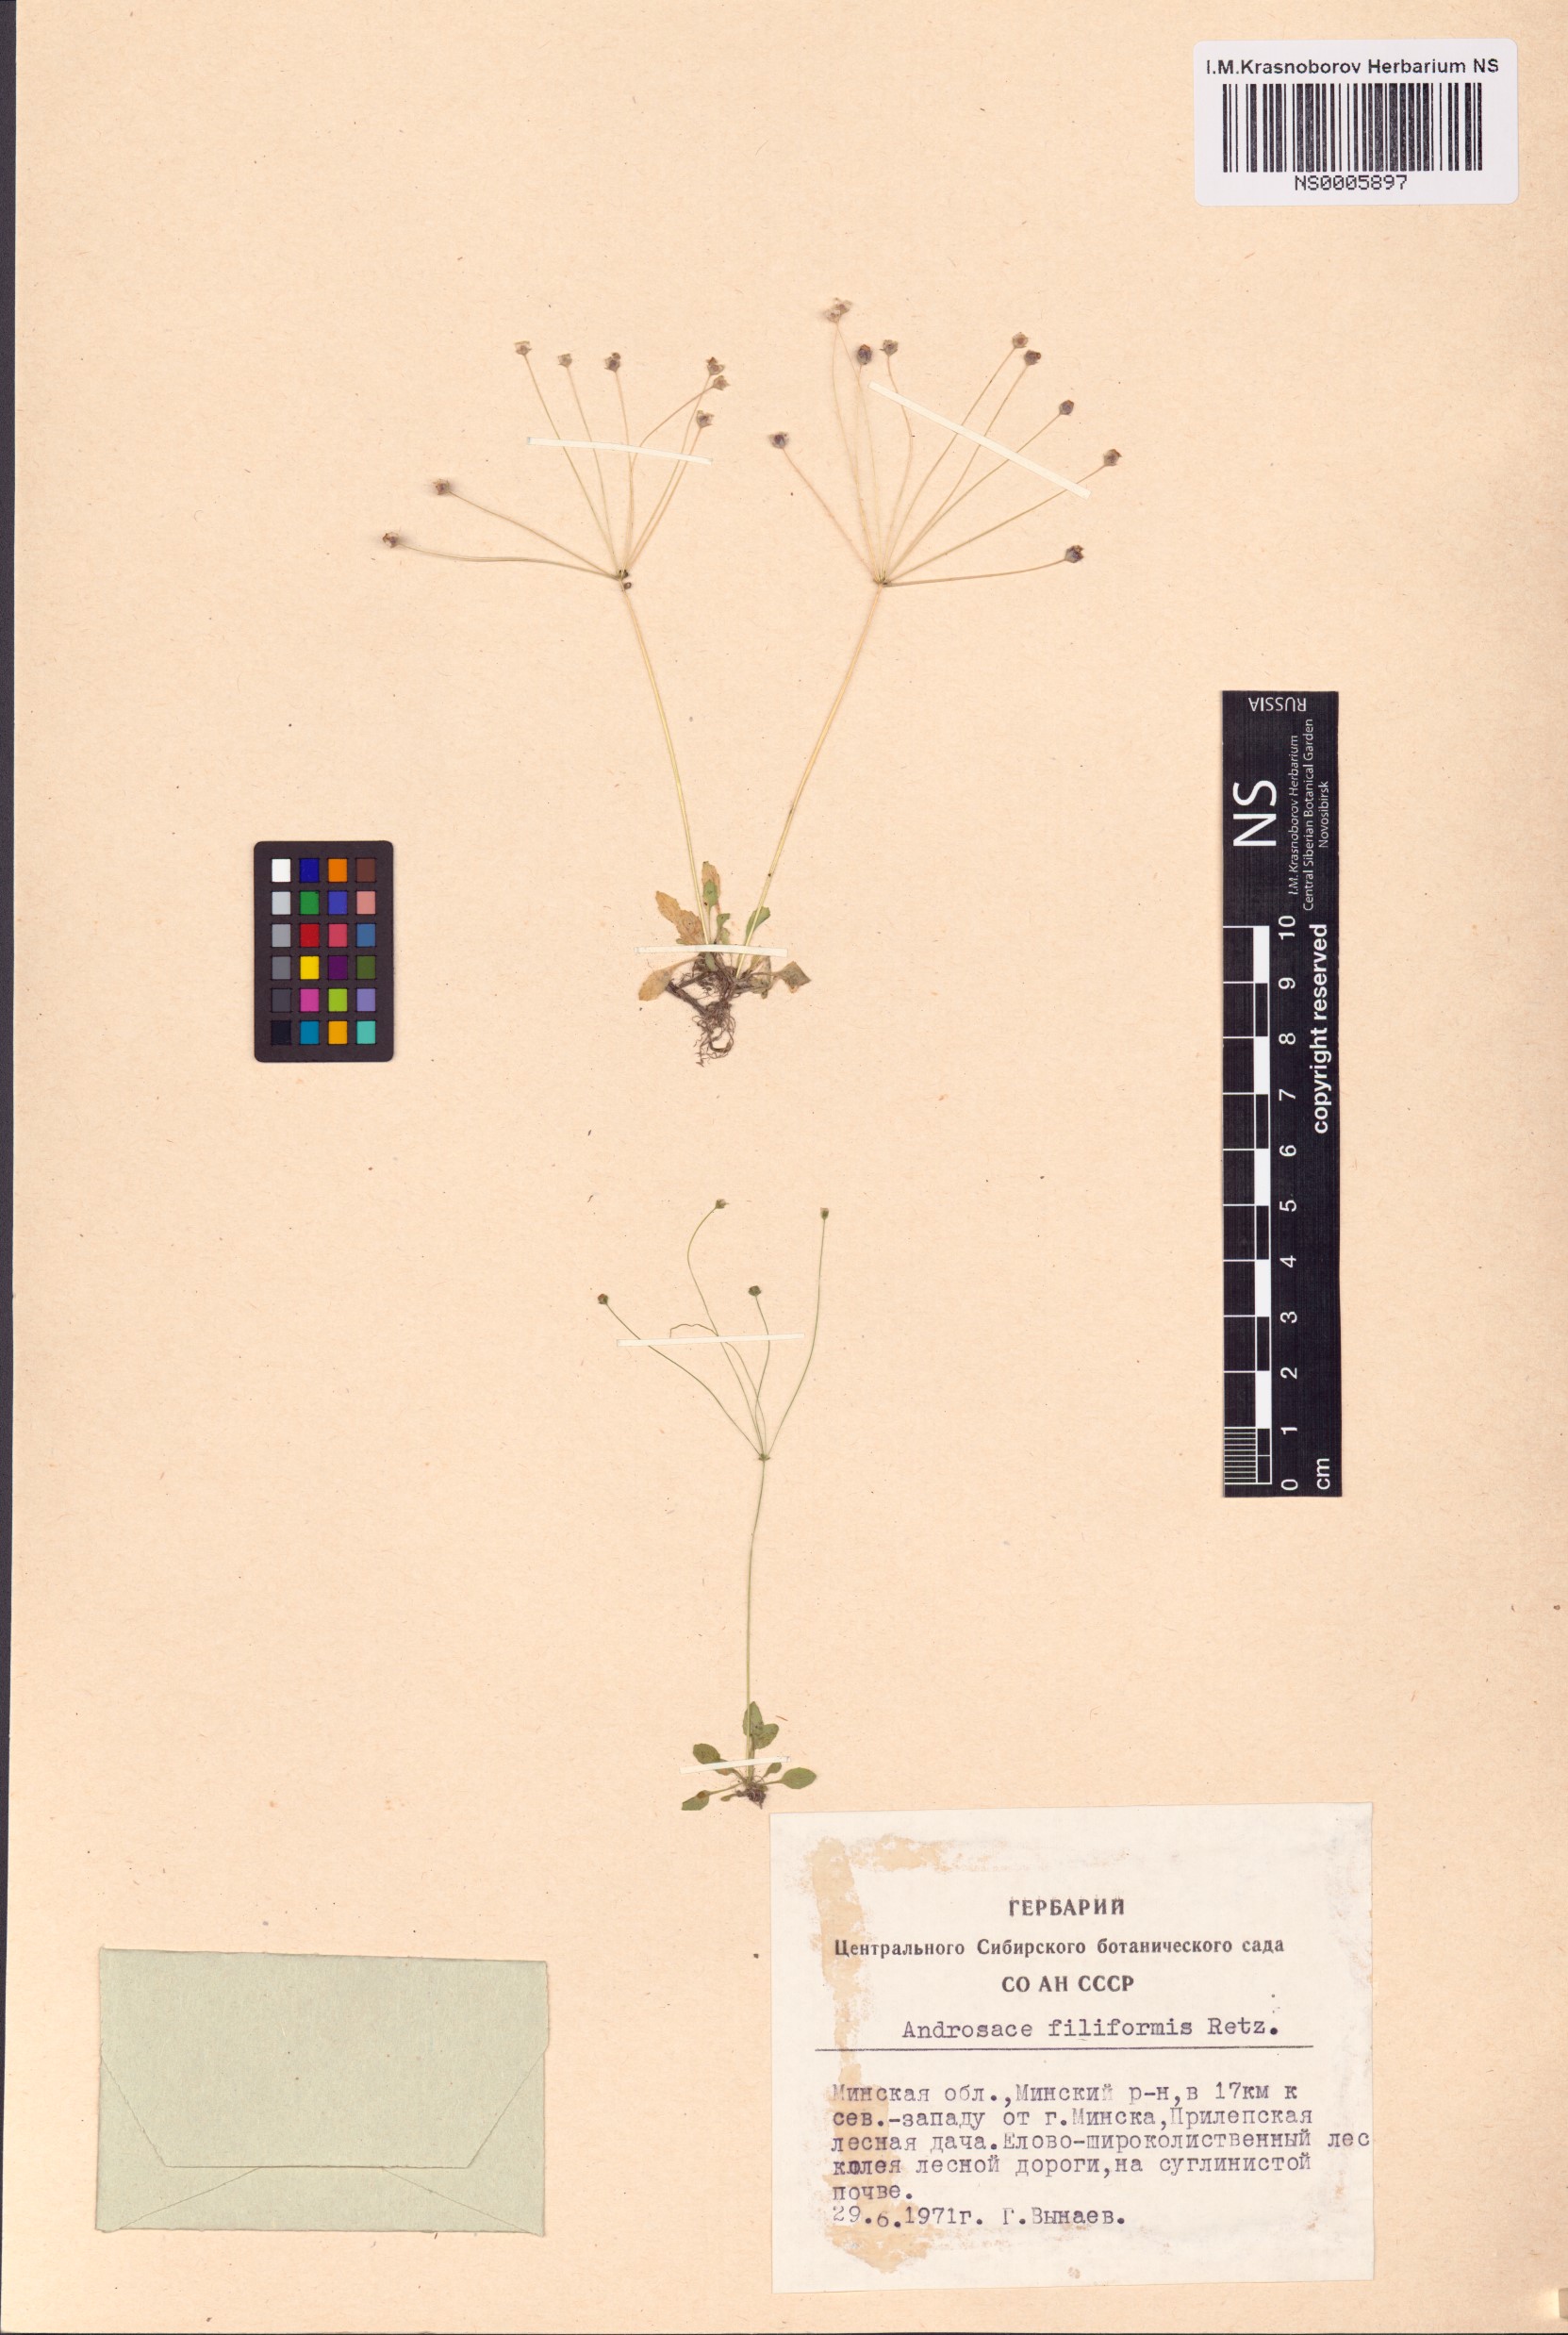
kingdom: Plantae
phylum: Tracheophyta
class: Magnoliopsida
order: Ericales
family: Primulaceae
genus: Androsace
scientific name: Androsace filiformis
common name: Filiform rock jasmine
